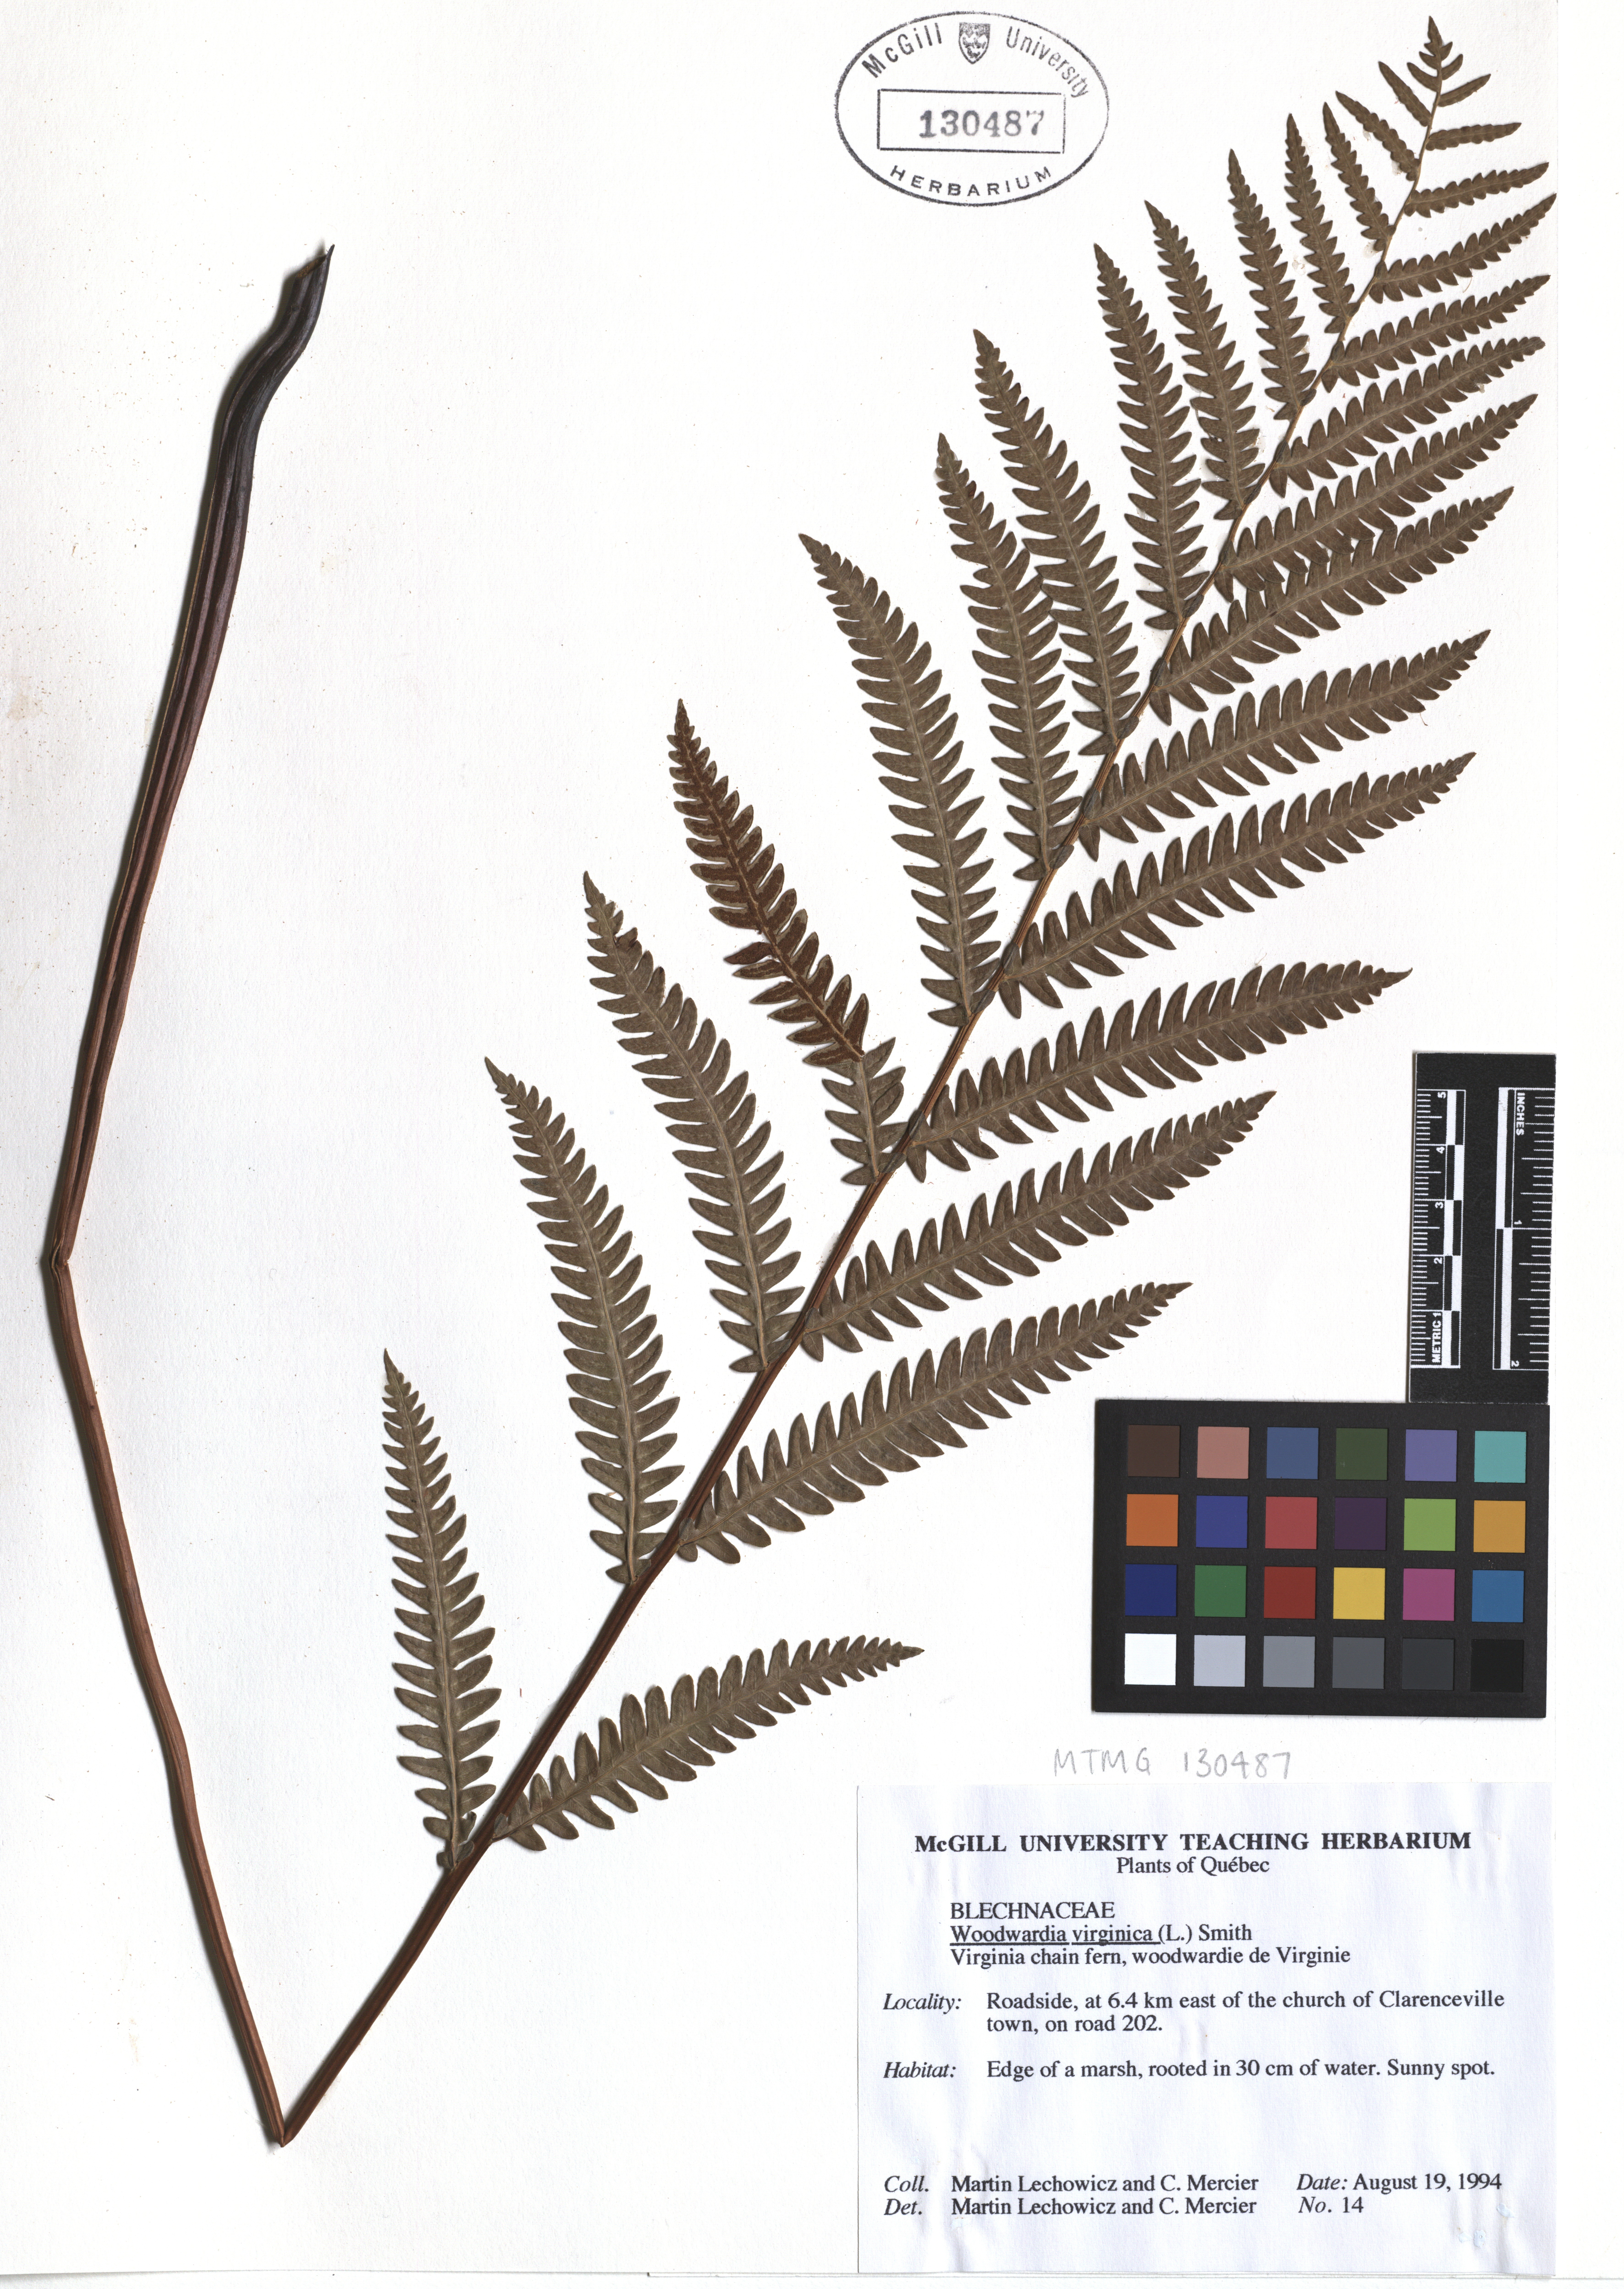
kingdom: Plantae
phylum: Tracheophyta
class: Polypodiopsida
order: Polypodiales
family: Blechnaceae
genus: Anchistea
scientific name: Anchistea virginica
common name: Virginia chain fern
